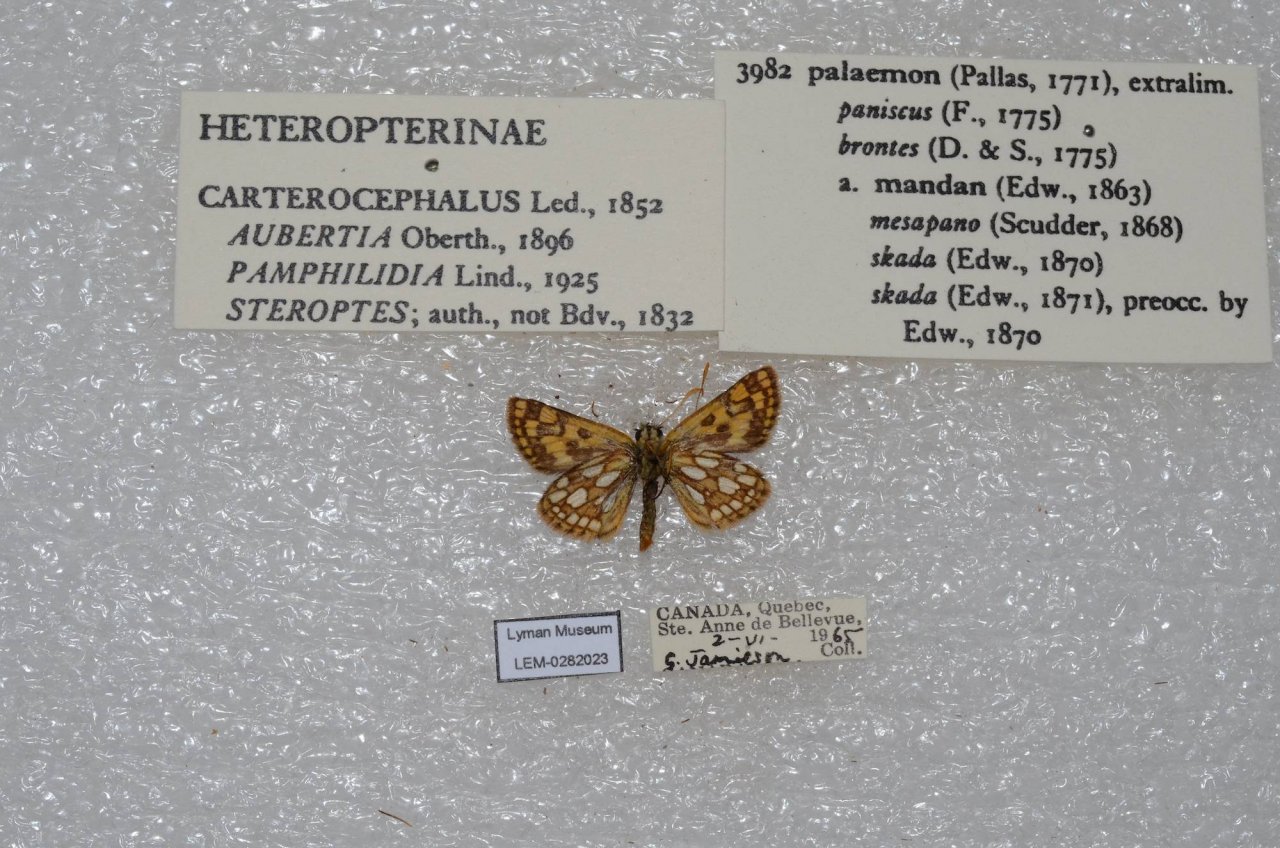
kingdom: Animalia
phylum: Arthropoda
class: Insecta
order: Lepidoptera
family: Hesperiidae
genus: Carterocephalus
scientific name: Carterocephalus palaemon
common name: Chequered Skipper
